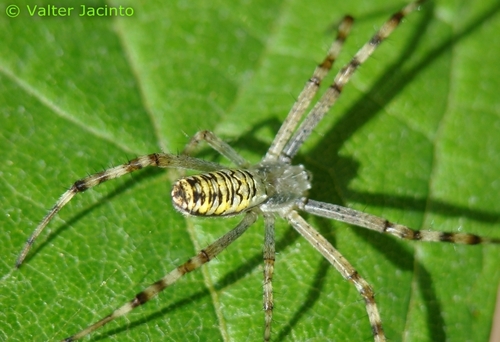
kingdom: Animalia
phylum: Arthropoda
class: Arachnida
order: Araneae
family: Araneidae
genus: Argiope
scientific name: Argiope bruennichi
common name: Wasp spider
